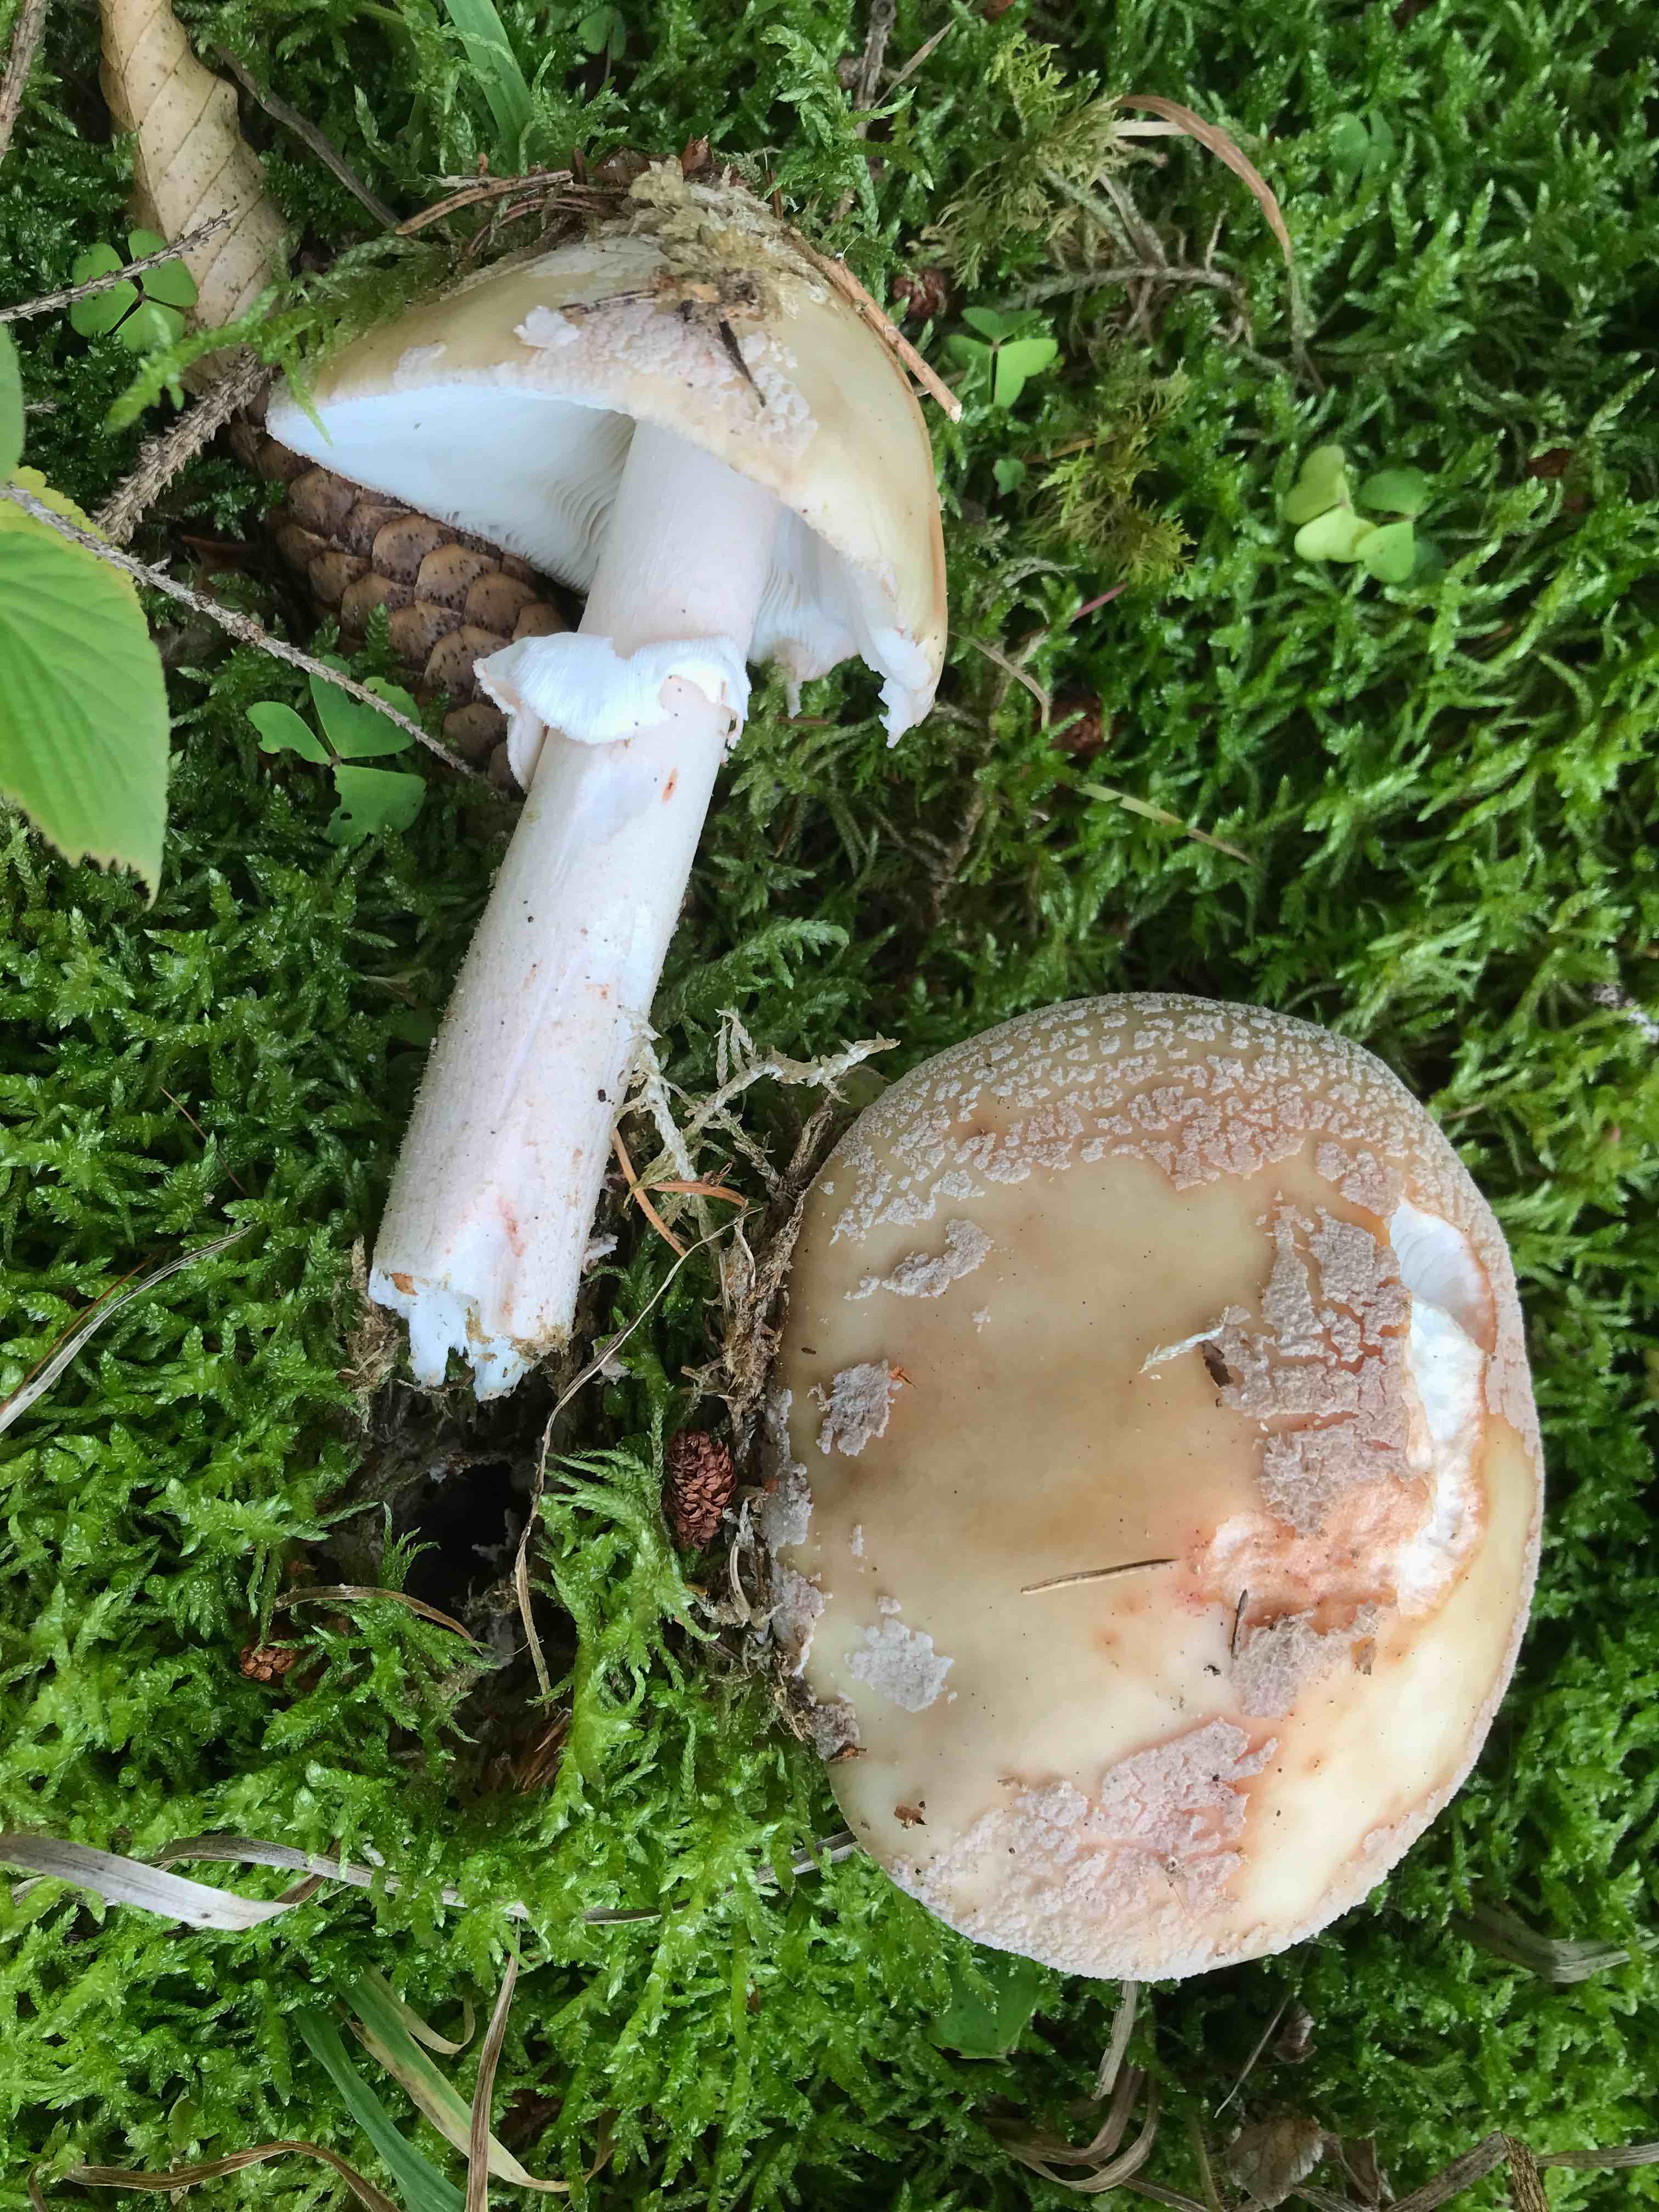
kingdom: Fungi
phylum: Basidiomycota
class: Agaricomycetes
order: Agaricales
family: Amanitaceae
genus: Amanita
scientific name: Amanita rubescens
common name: rødmende fluesvamp
